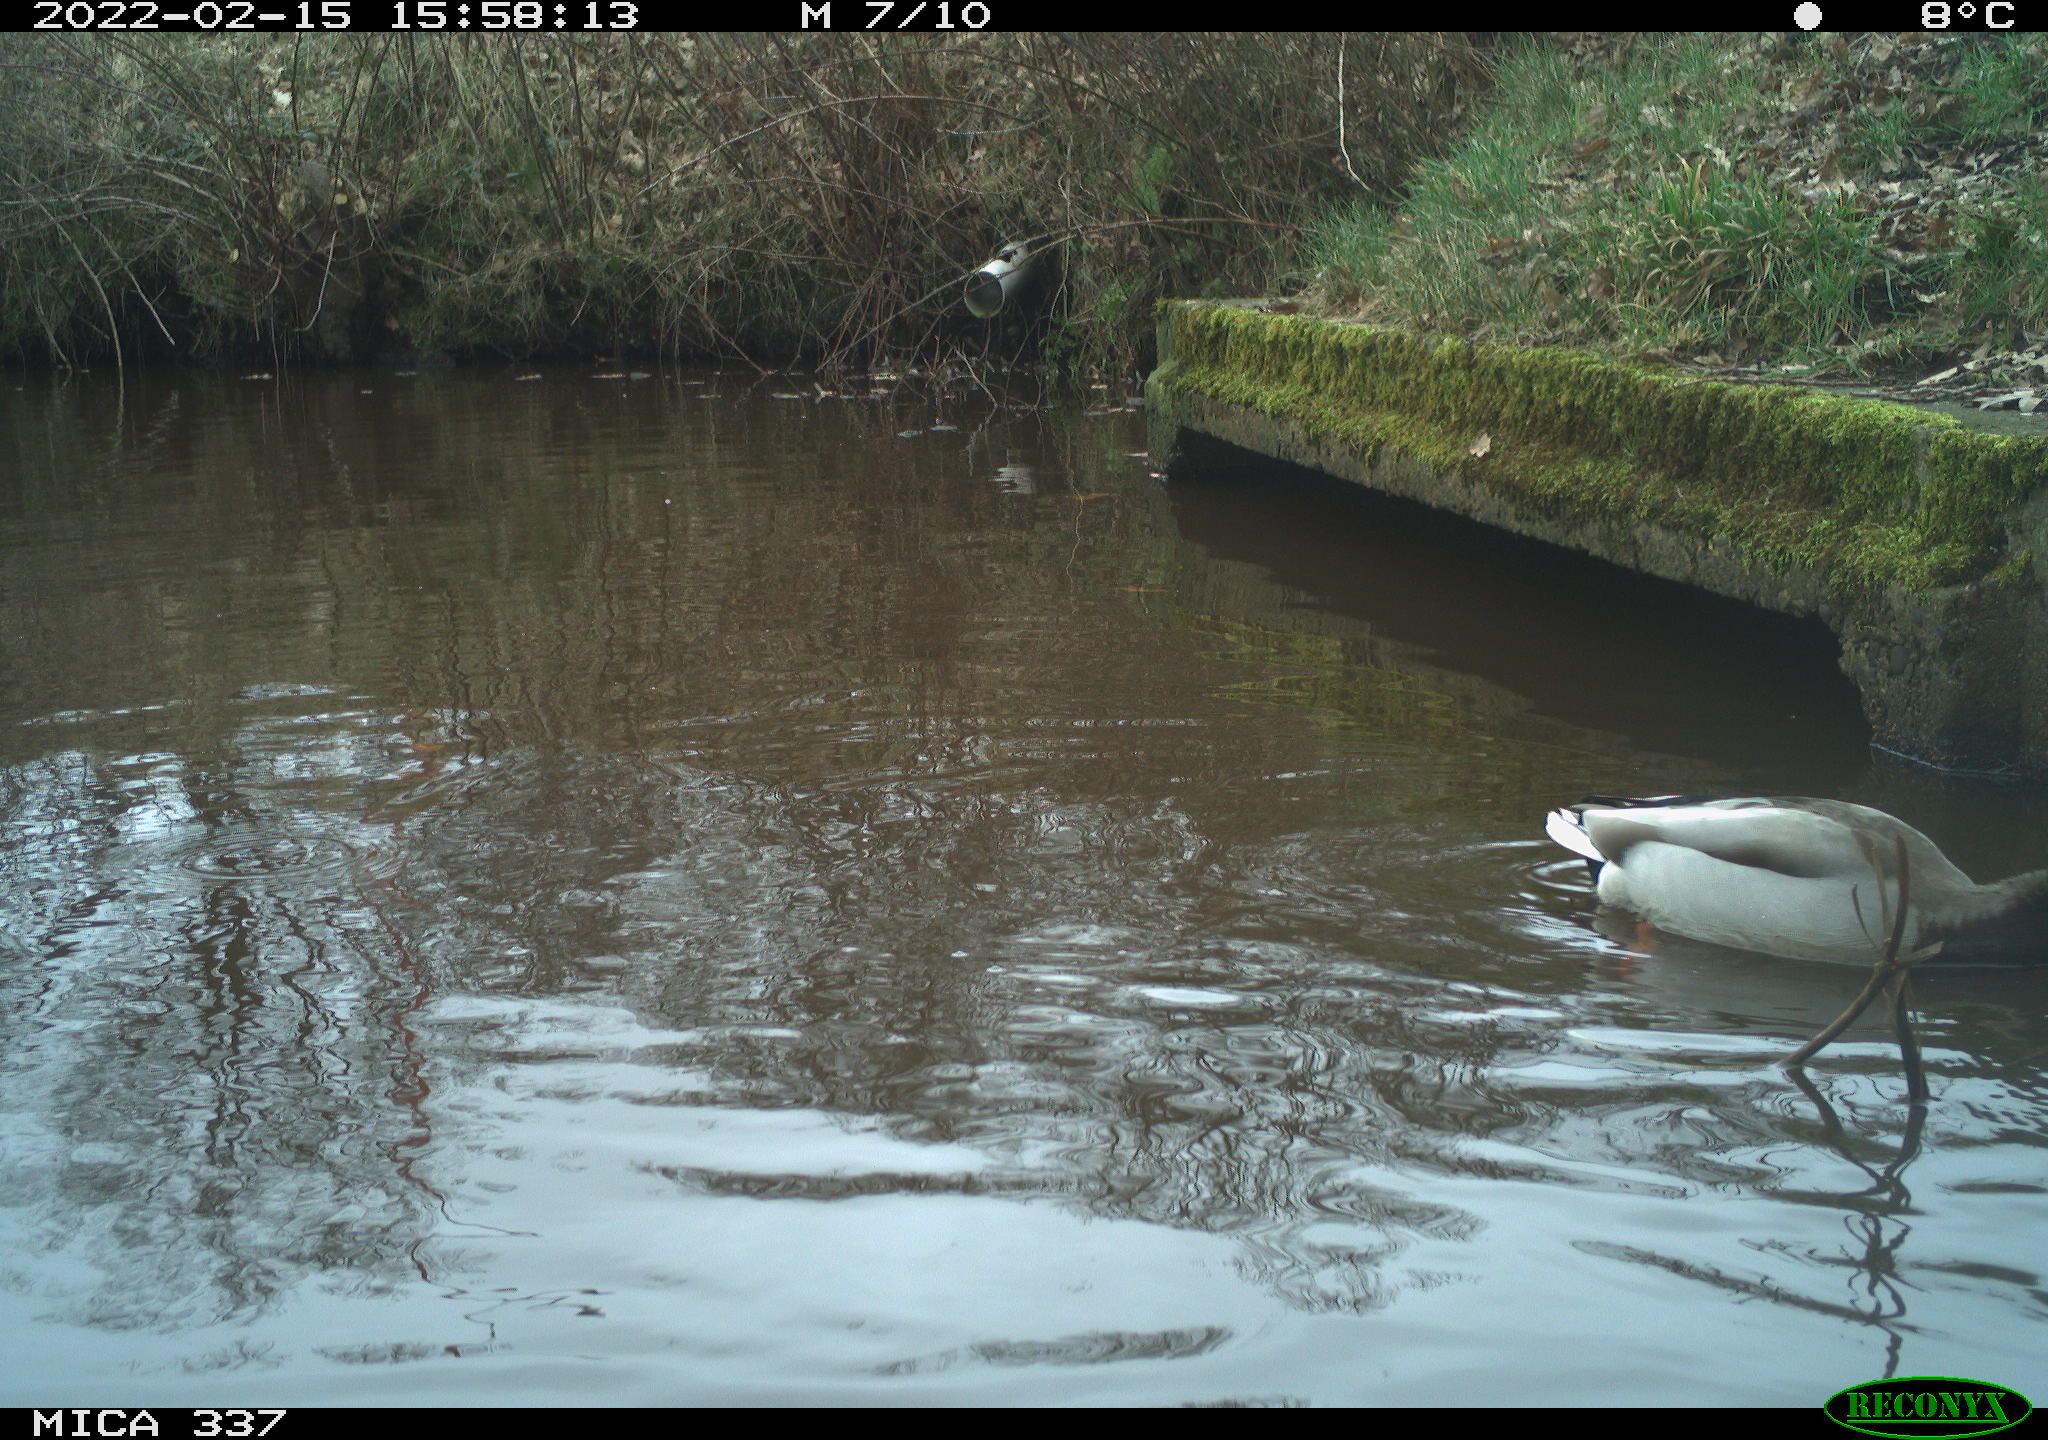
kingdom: Animalia
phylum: Chordata
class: Aves
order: Anseriformes
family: Anatidae
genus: Anas
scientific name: Anas platyrhynchos
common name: Mallard
